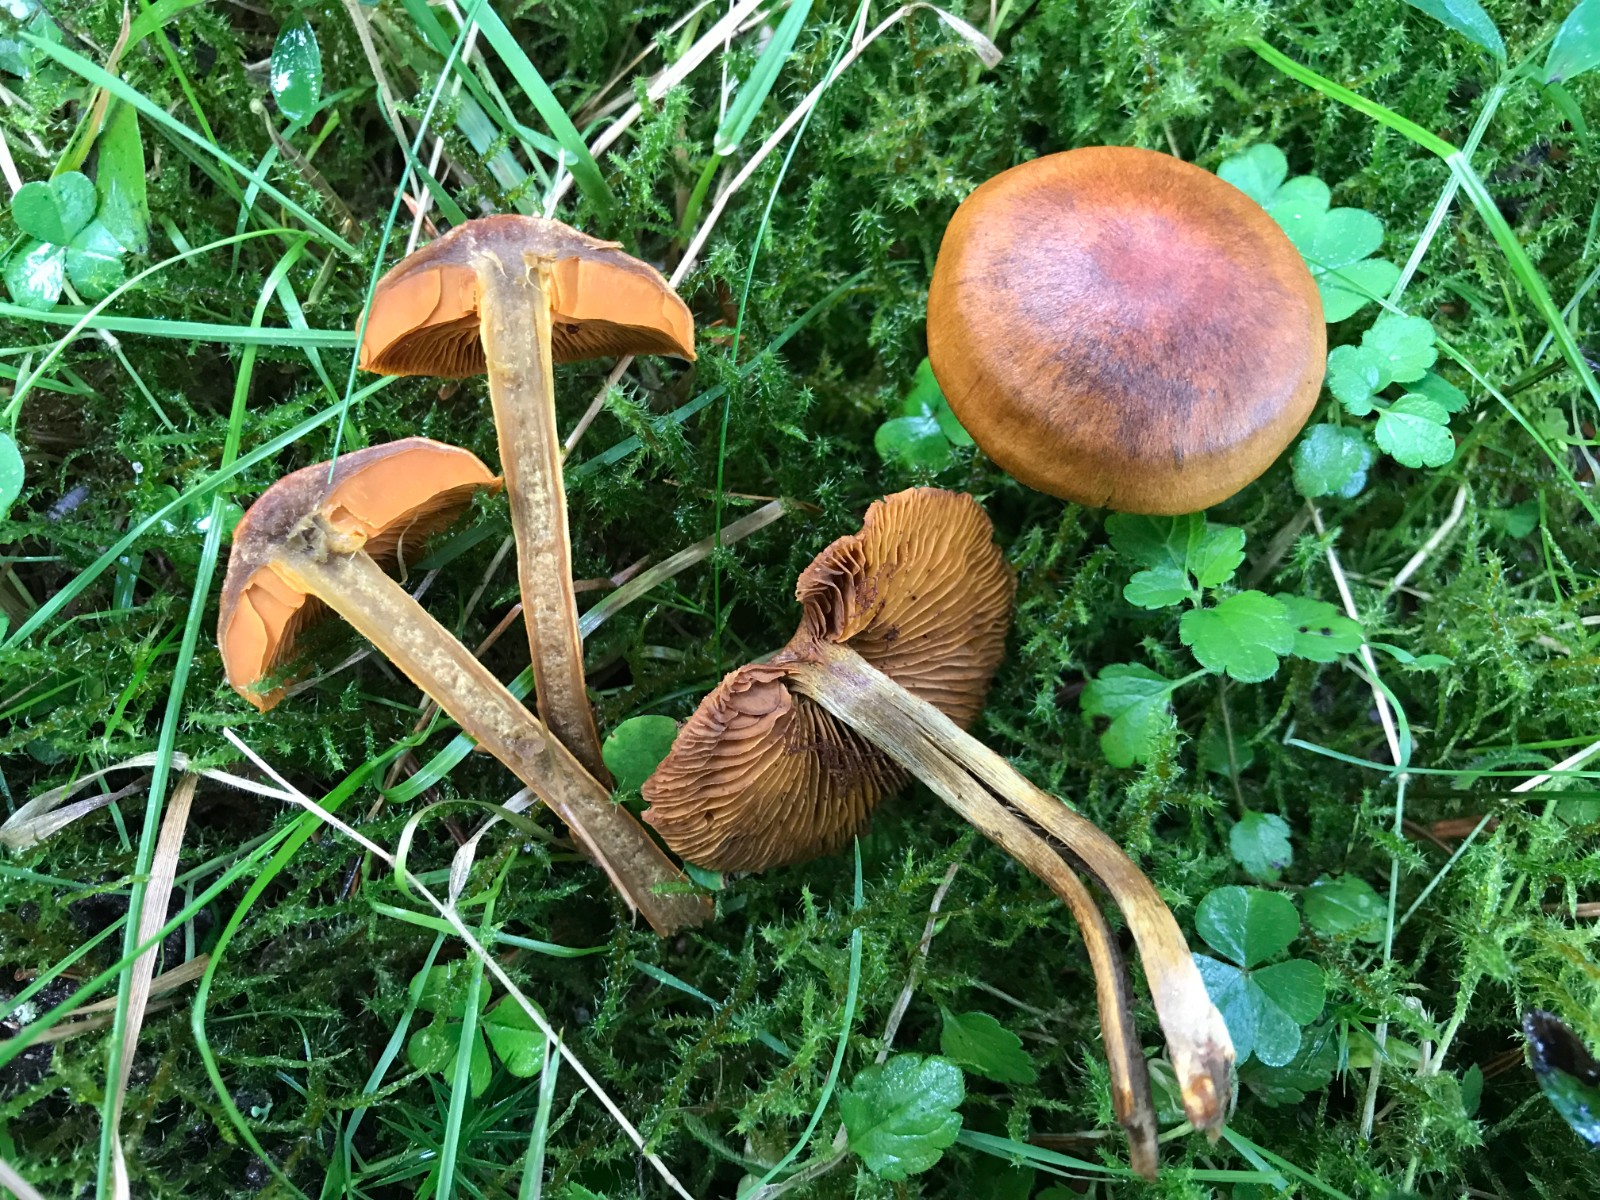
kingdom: Fungi
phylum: Basidiomycota
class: Agaricomycetes
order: Agaricales
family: Cortinariaceae
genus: Cortinarius
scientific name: Cortinarius malicorius
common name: grønkødet slørhat
